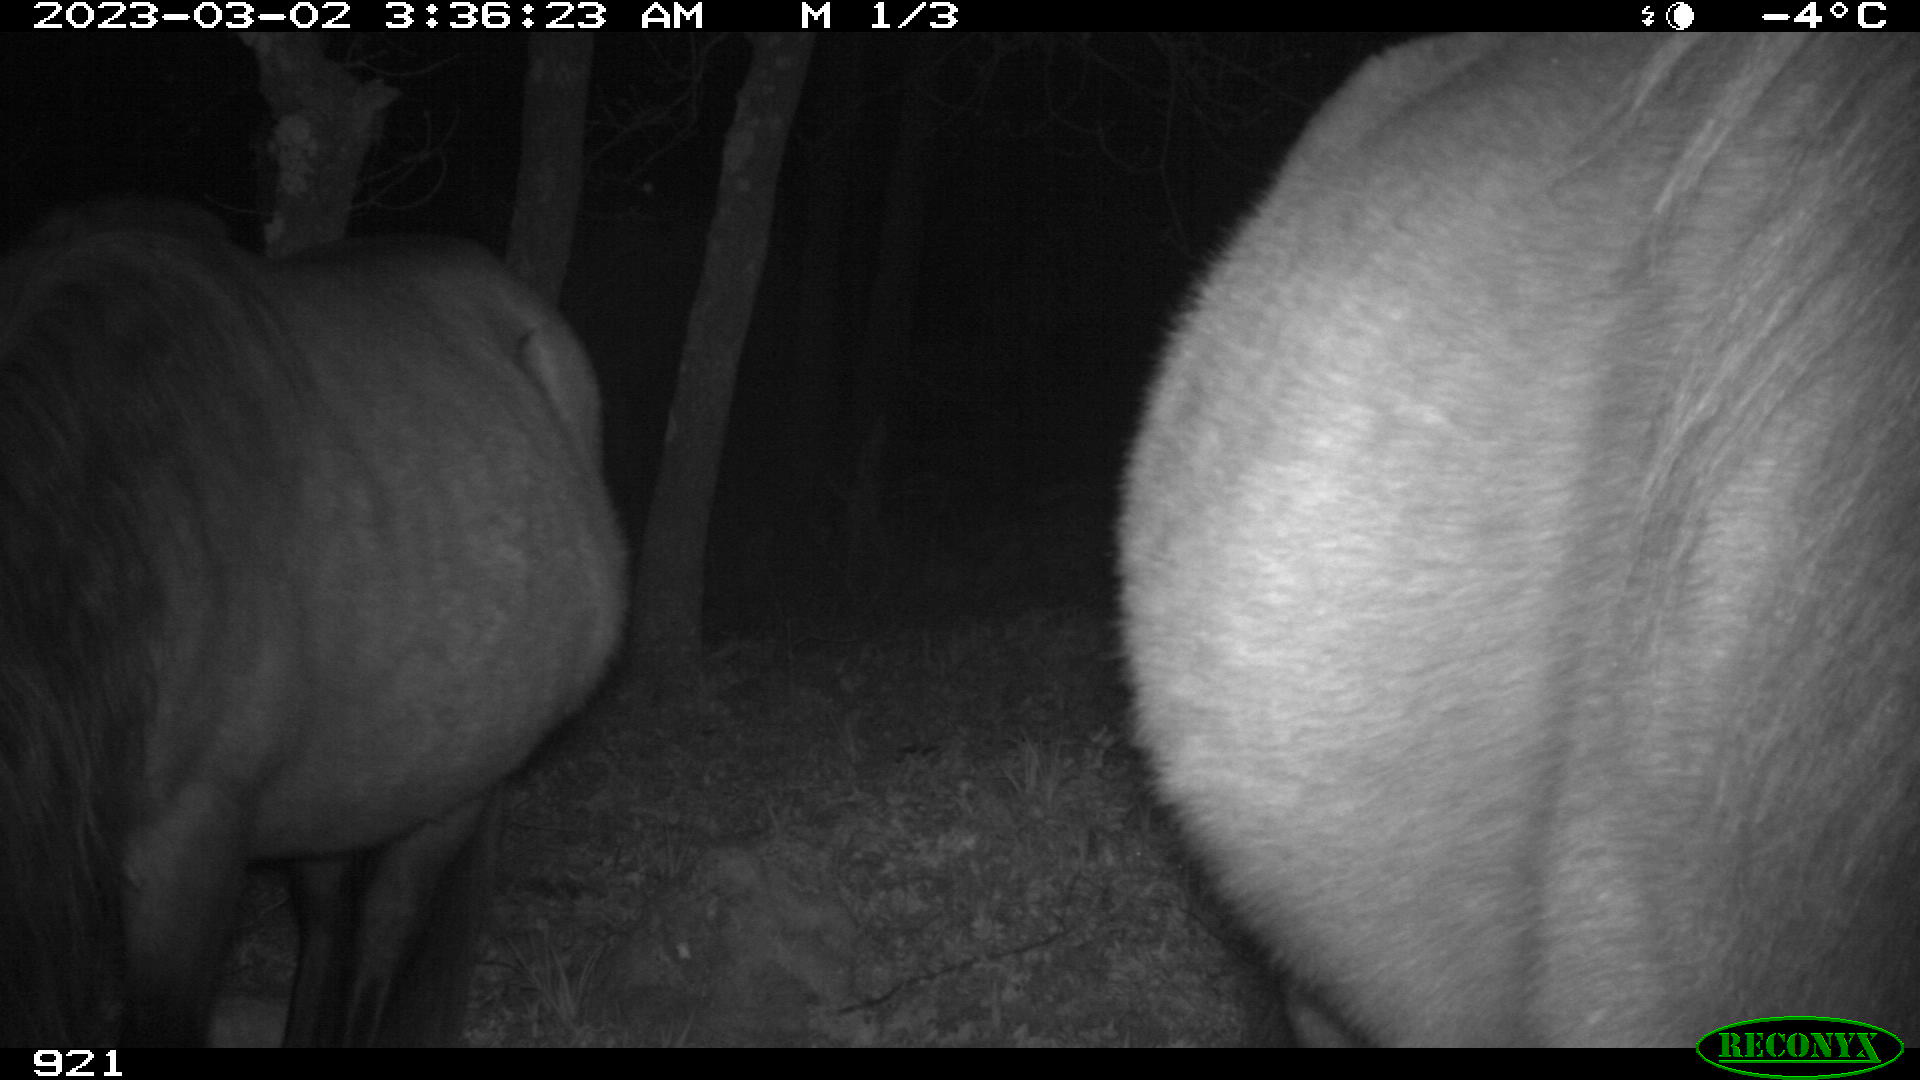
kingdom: Animalia
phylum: Chordata
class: Mammalia
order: Perissodactyla
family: Equidae
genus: Equus
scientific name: Equus caballus
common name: Horse
